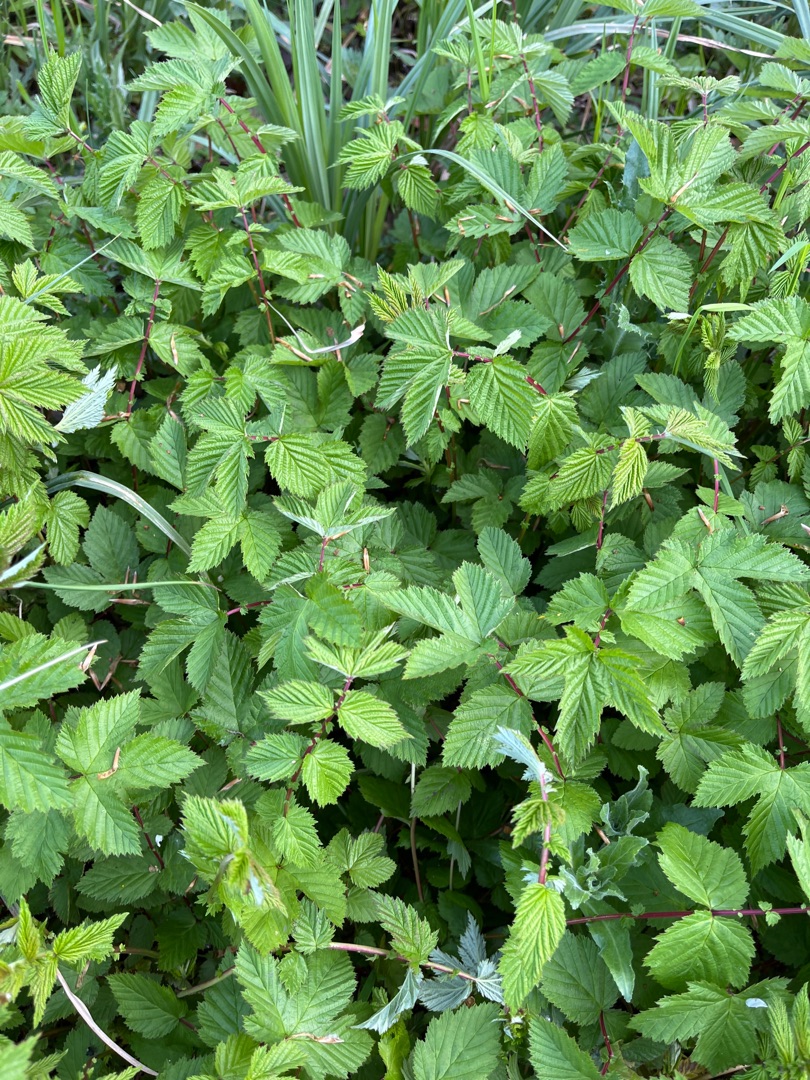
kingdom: Plantae
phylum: Tracheophyta
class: Magnoliopsida
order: Rosales
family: Rosaceae
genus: Filipendula
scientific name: Filipendula ulmaria
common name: Almindelig mjødurt
